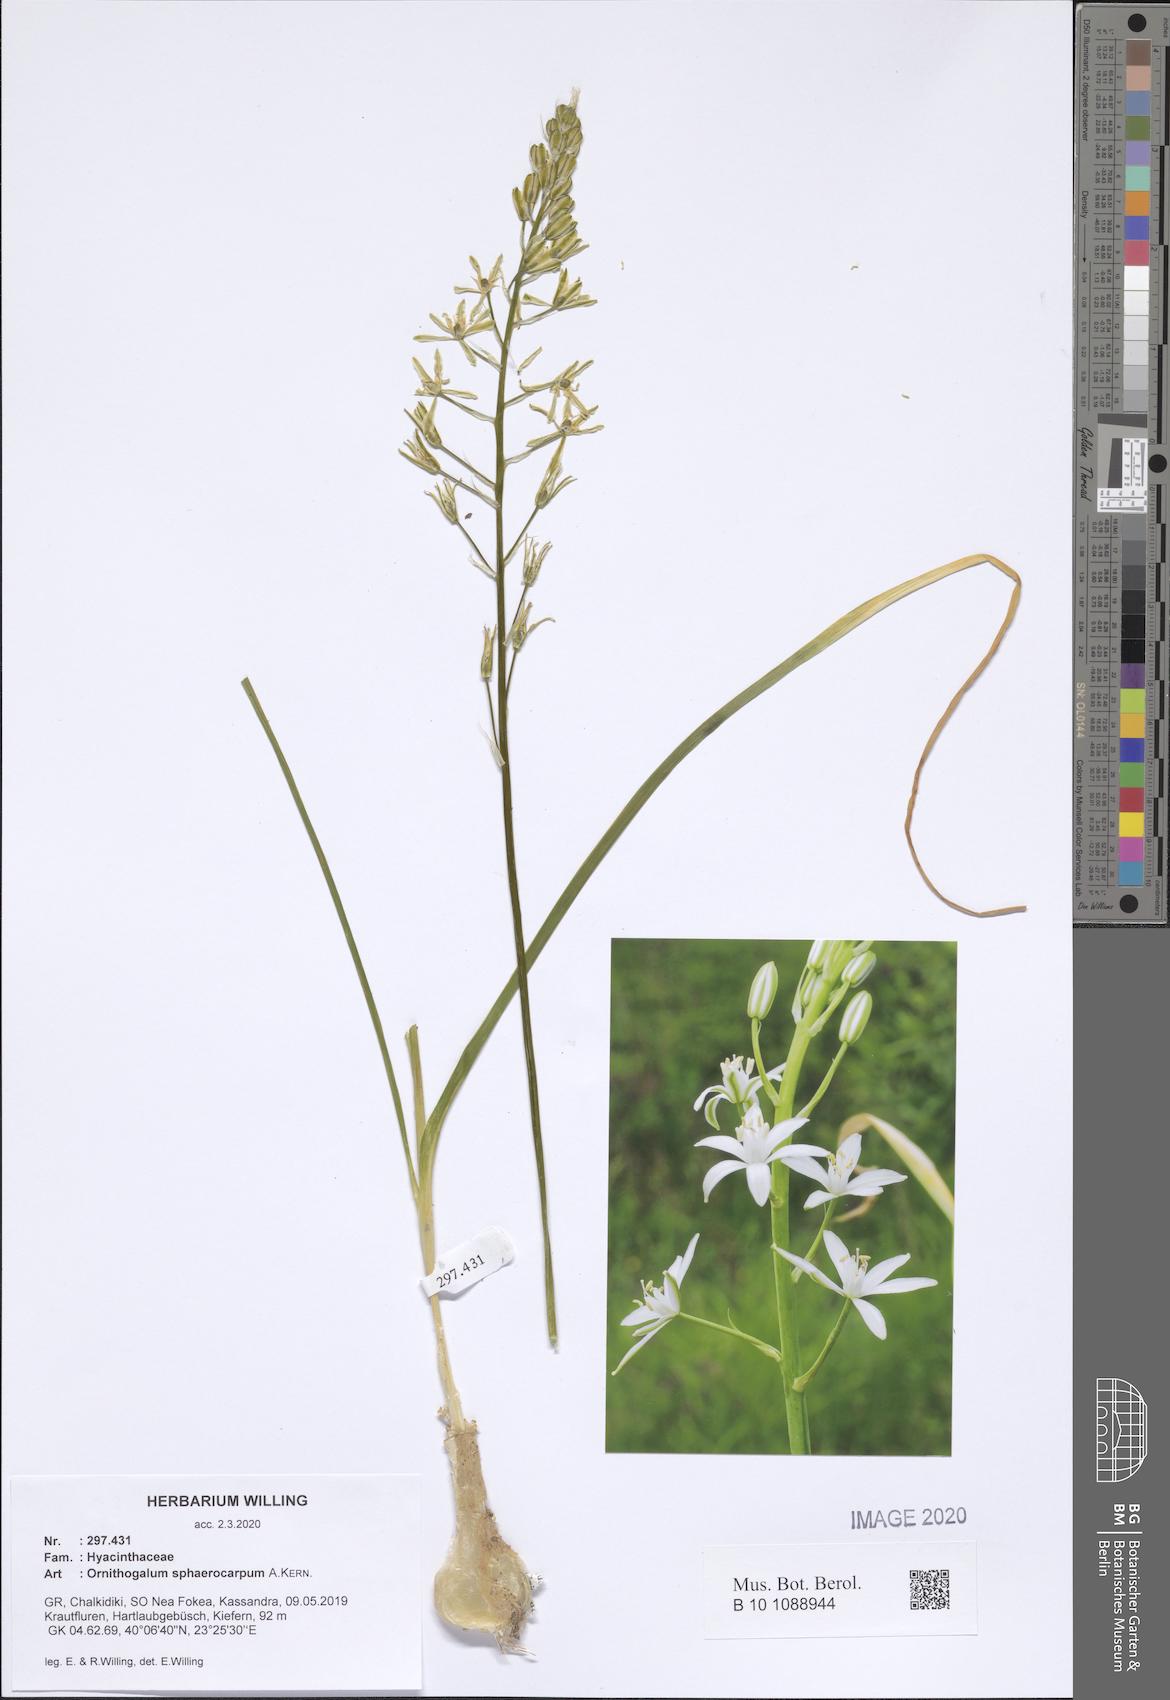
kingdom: Plantae
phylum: Tracheophyta
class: Liliopsida
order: Asparagales
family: Asparagaceae
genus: Ornithogalum
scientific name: Ornithogalum sphaerocarpum
